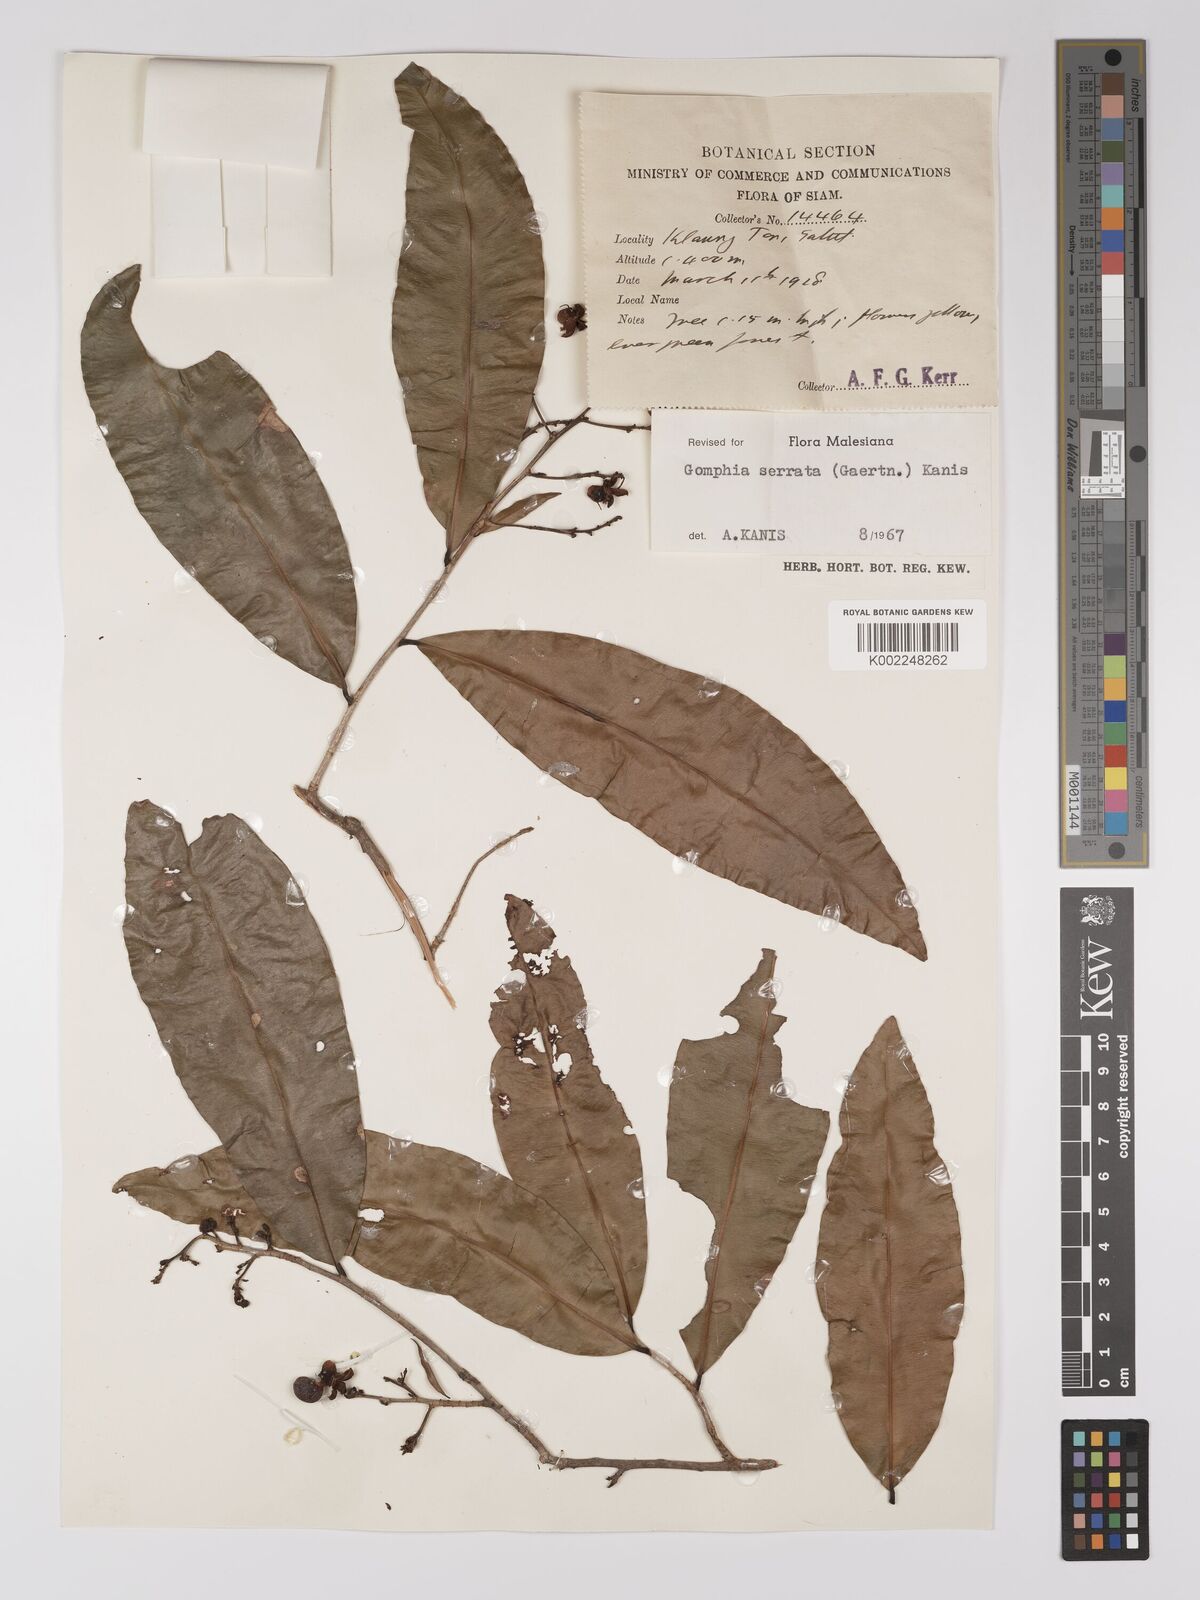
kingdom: Plantae
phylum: Tracheophyta
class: Magnoliopsida
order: Malpighiales
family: Ochnaceae
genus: Gomphia
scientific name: Gomphia serrata
